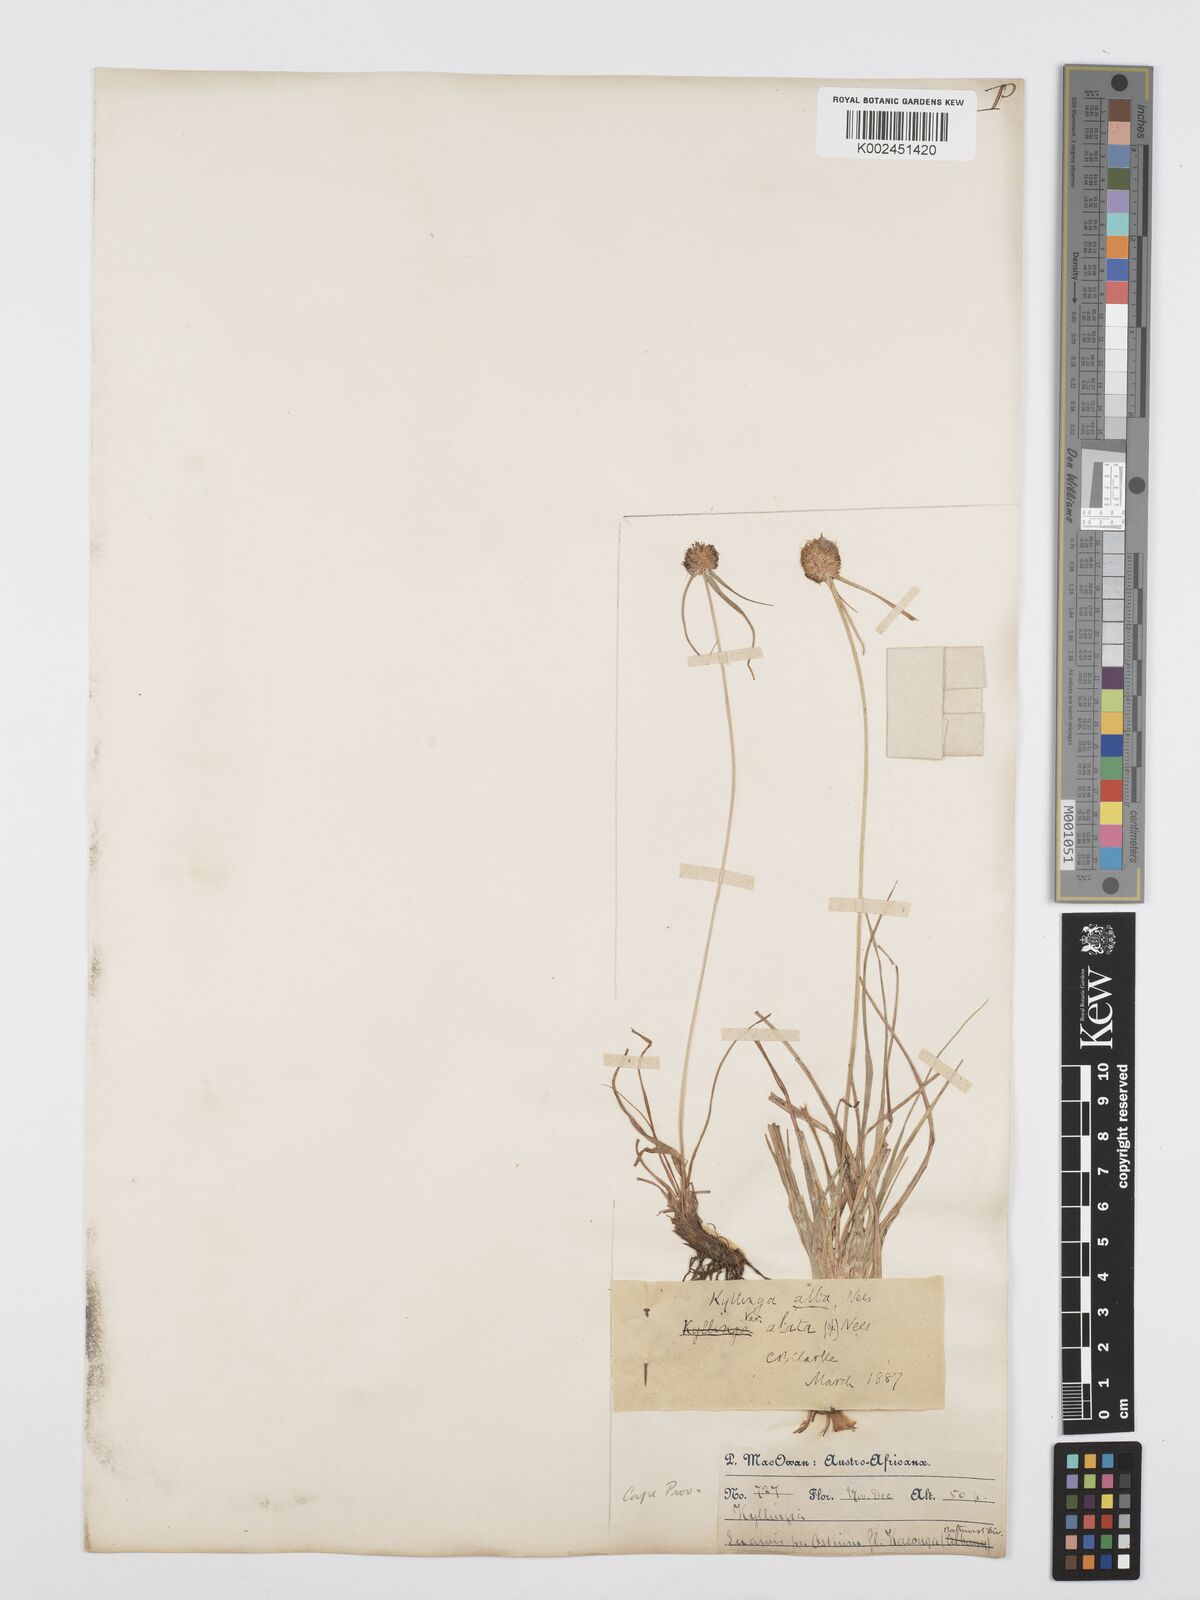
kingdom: Plantae
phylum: Tracheophyta
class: Liliopsida
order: Poales
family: Cyperaceae
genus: Cyperus
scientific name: Cyperus alatus
